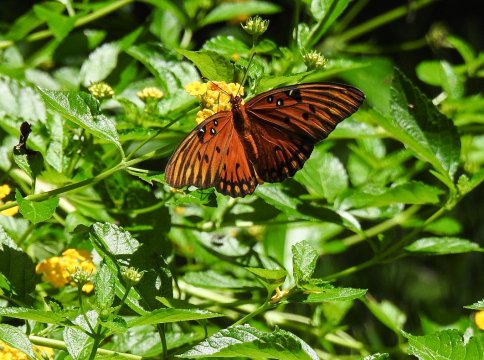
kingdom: Animalia
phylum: Arthropoda
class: Insecta
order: Lepidoptera
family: Nymphalidae
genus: Dione
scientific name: Dione vanillae
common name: Gulf Fritillary
